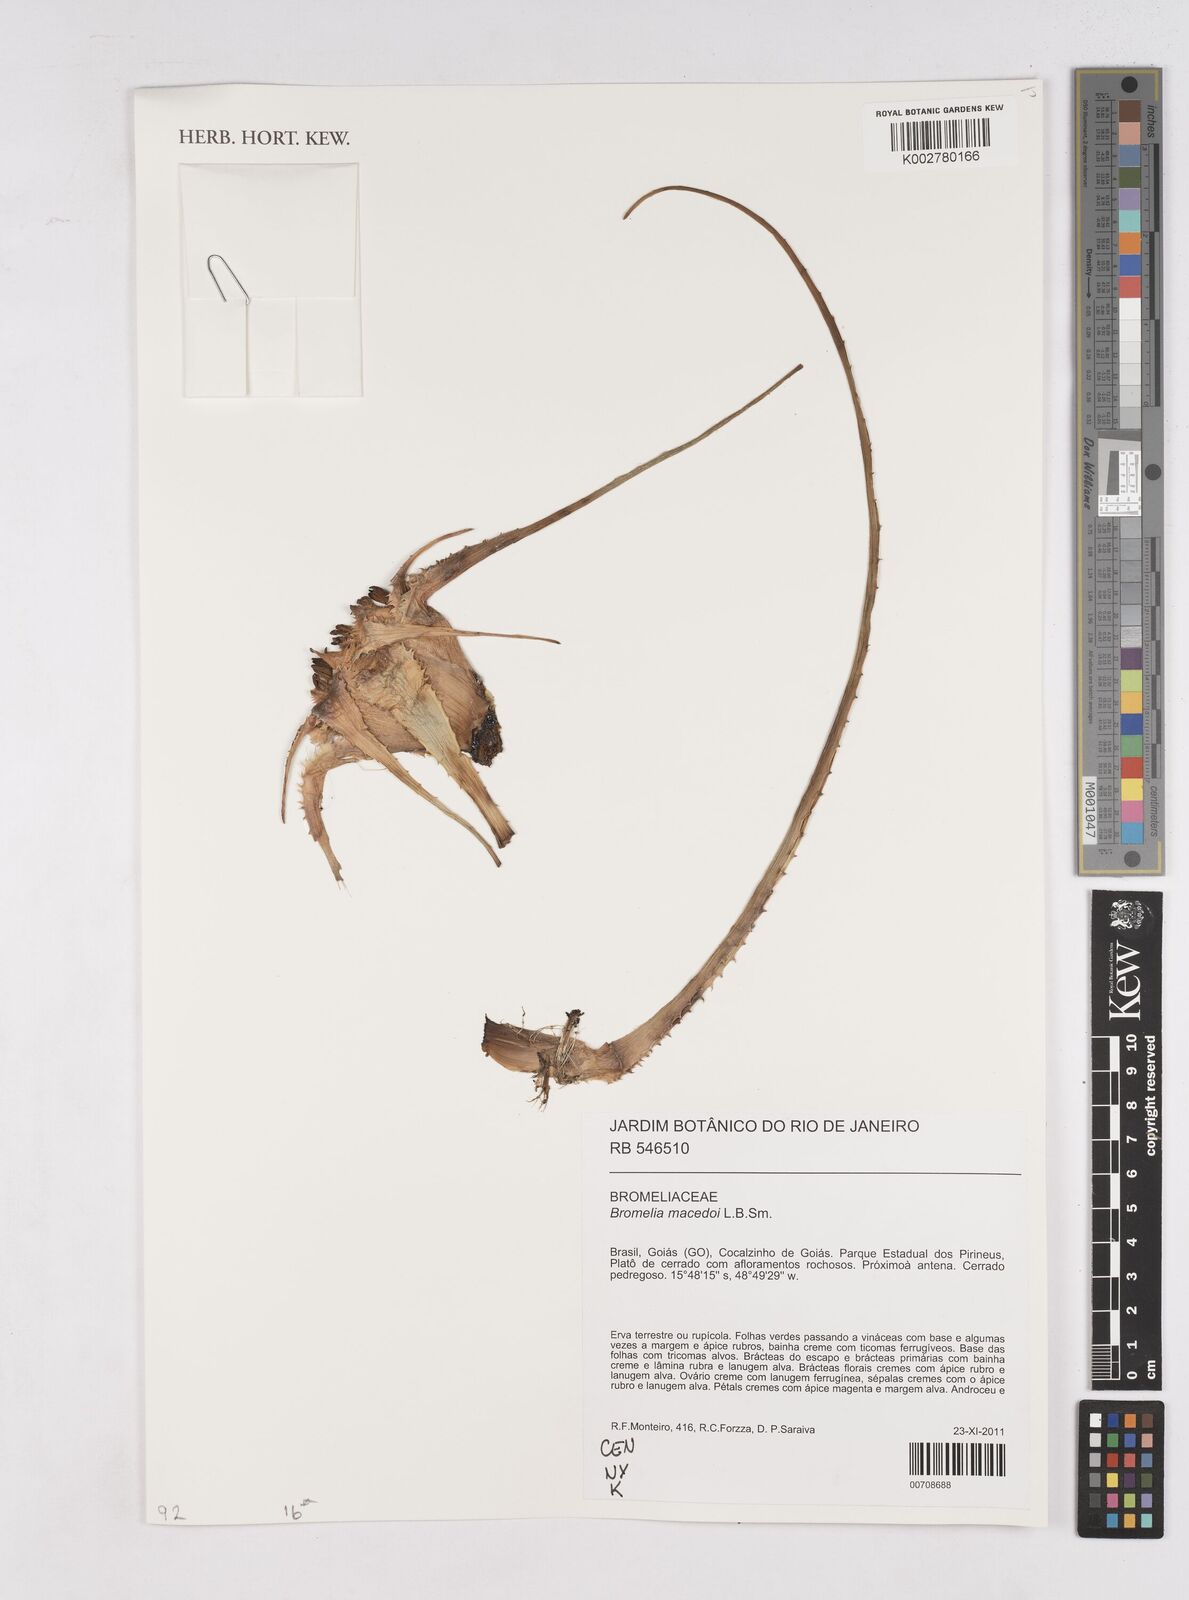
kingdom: Plantae
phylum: Tracheophyta
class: Liliopsida
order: Poales
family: Bromeliaceae
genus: Bromelia
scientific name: Bromelia macedoi
